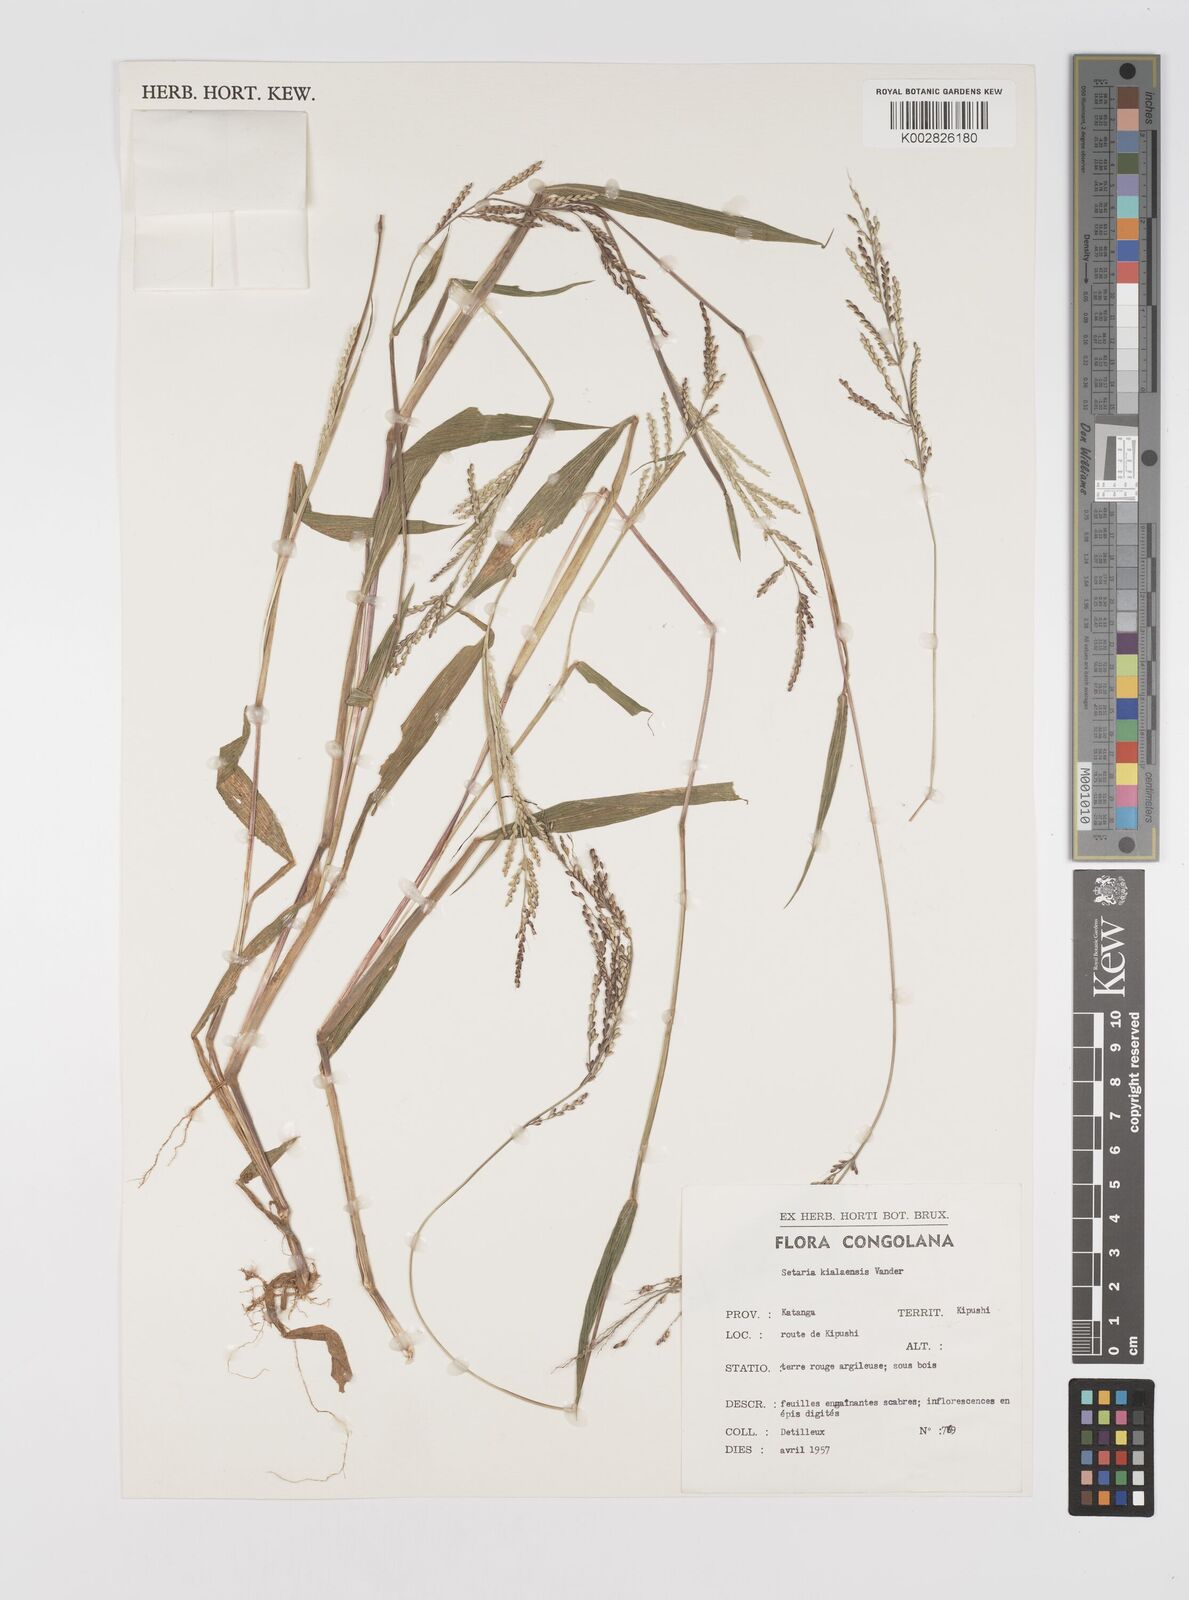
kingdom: Plantae
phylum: Tracheophyta
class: Liliopsida
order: Poales
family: Poaceae
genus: Setaria
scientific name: Setaria homonyma
